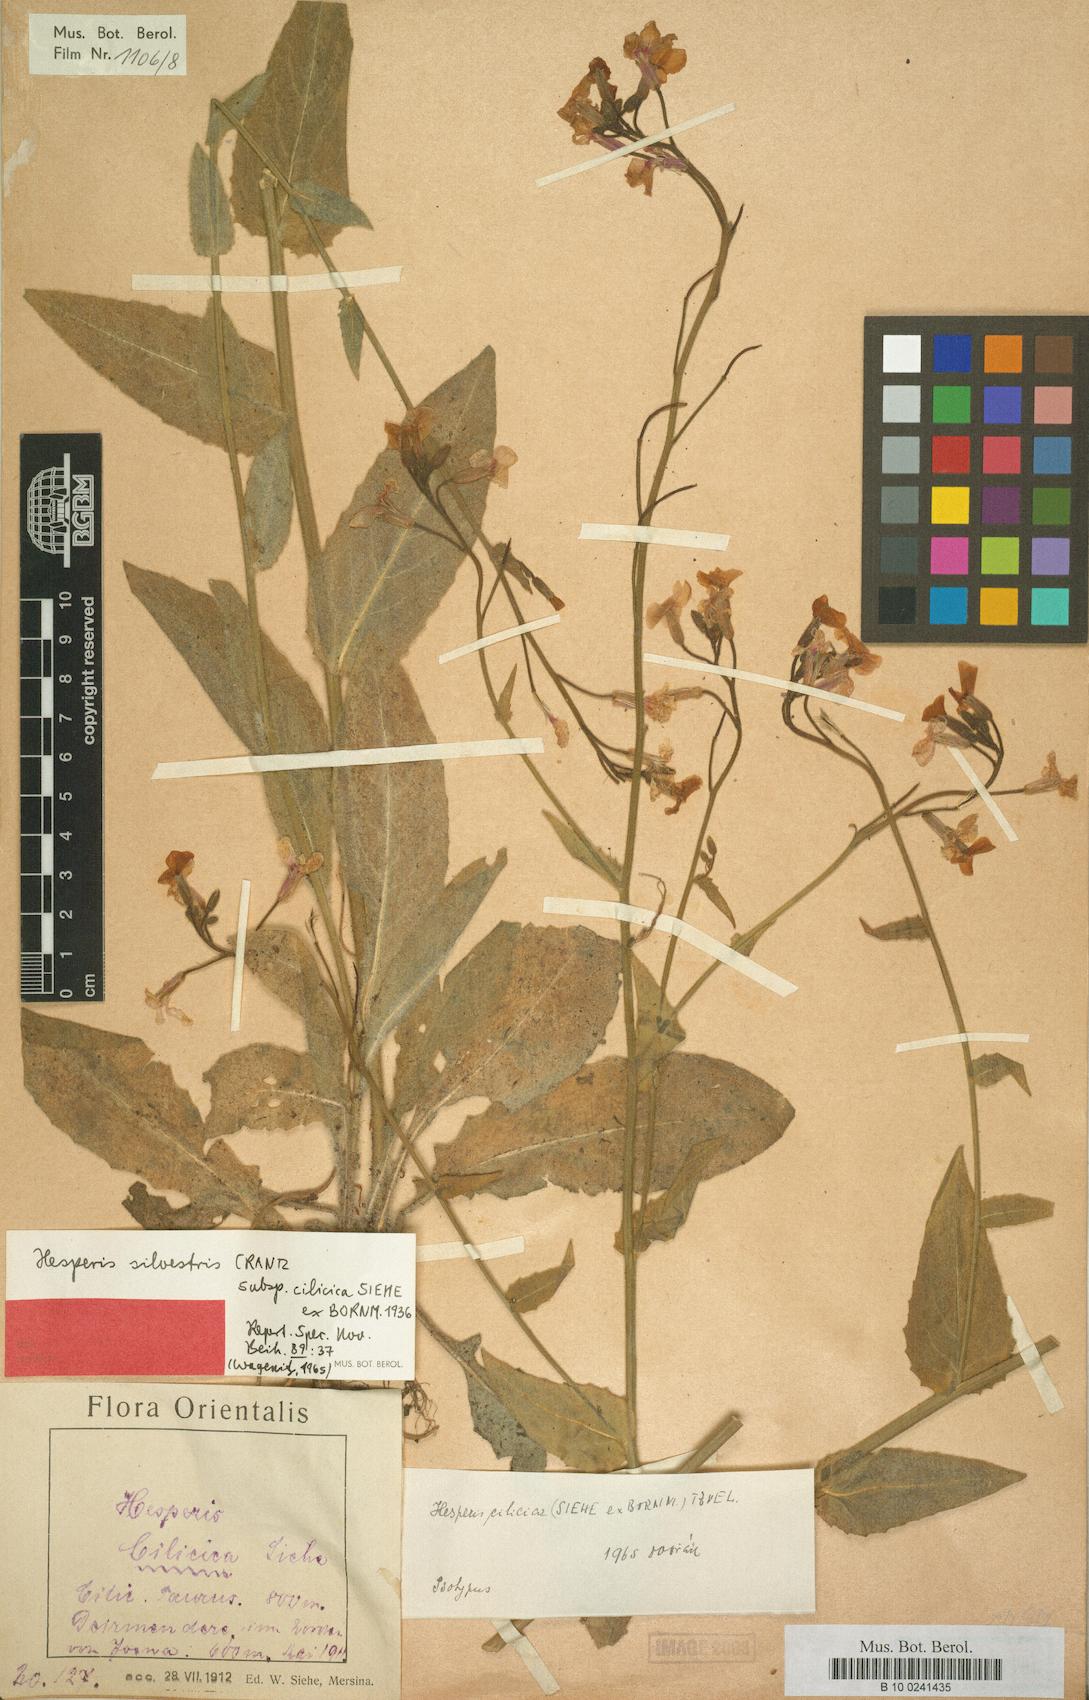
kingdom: Plantae
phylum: Tracheophyta
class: Magnoliopsida
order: Brassicales
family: Brassicaceae
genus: Hesperis
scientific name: Hesperis matronalis
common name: Dame's-violet
